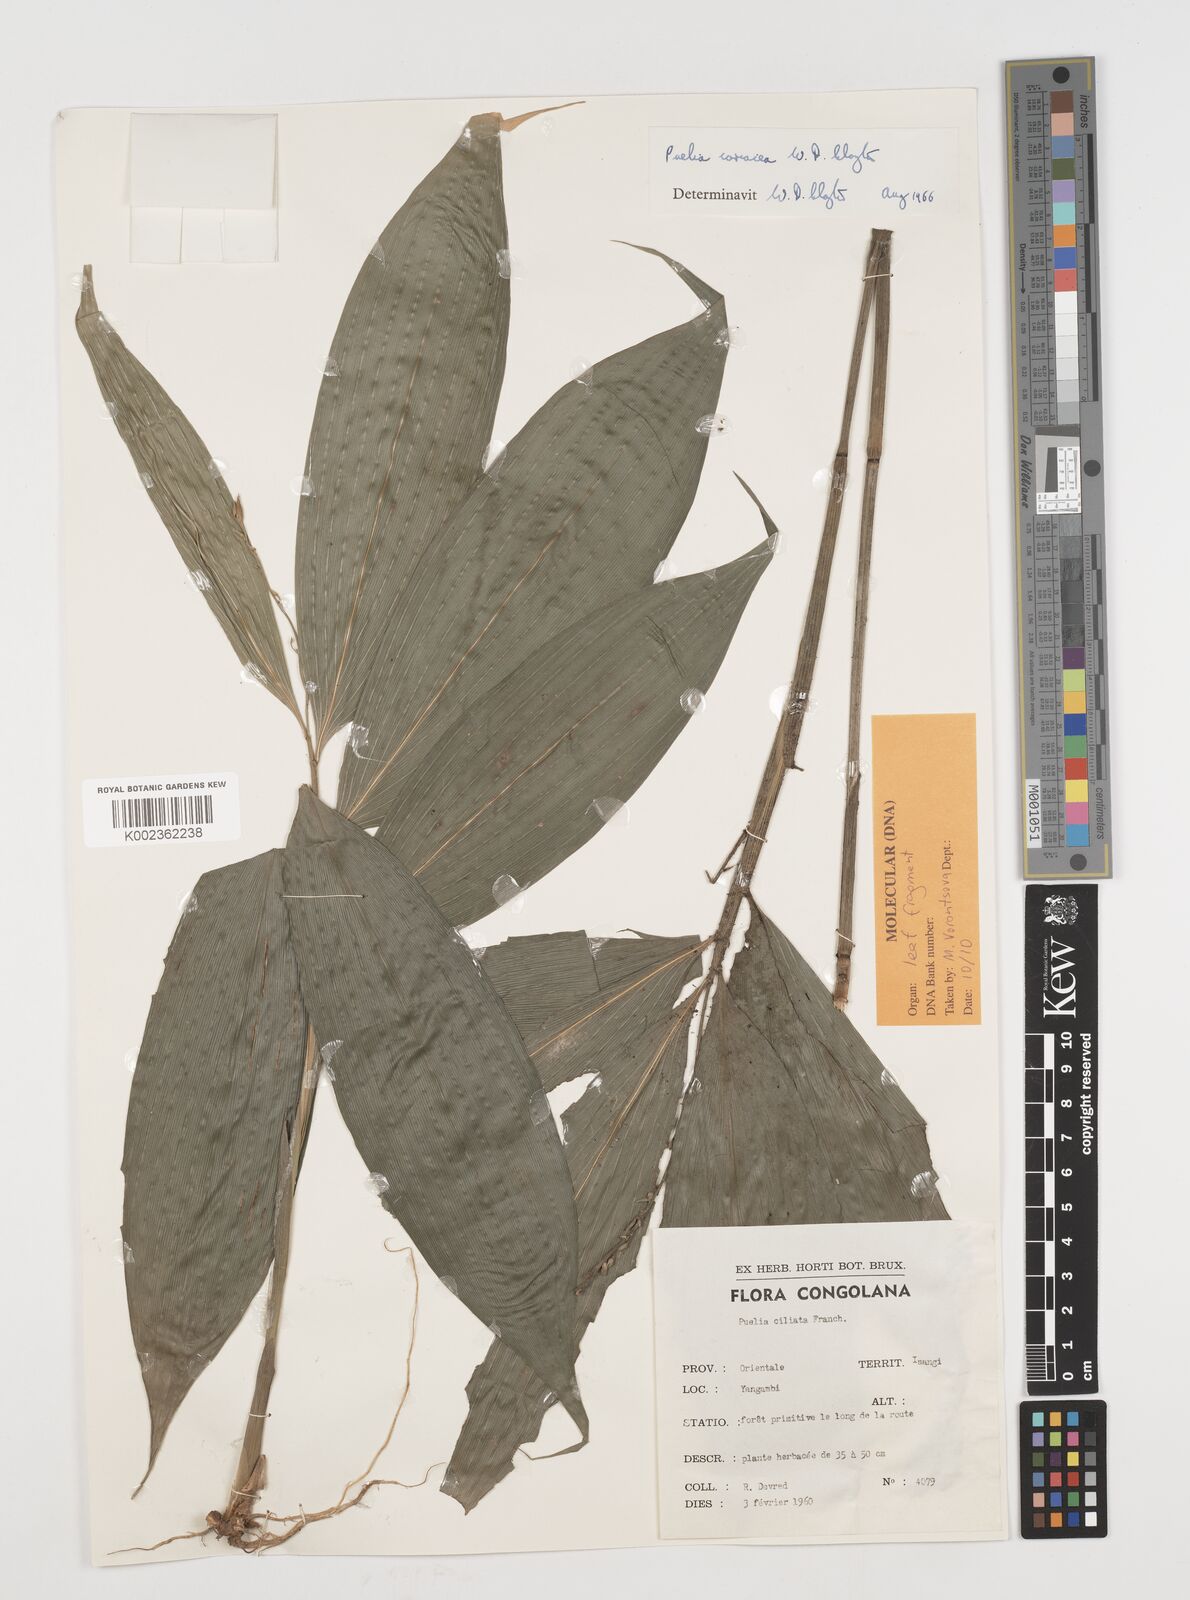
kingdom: Plantae
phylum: Tracheophyta
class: Liliopsida
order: Poales
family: Poaceae
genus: Puelia
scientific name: Puelia coriacea
